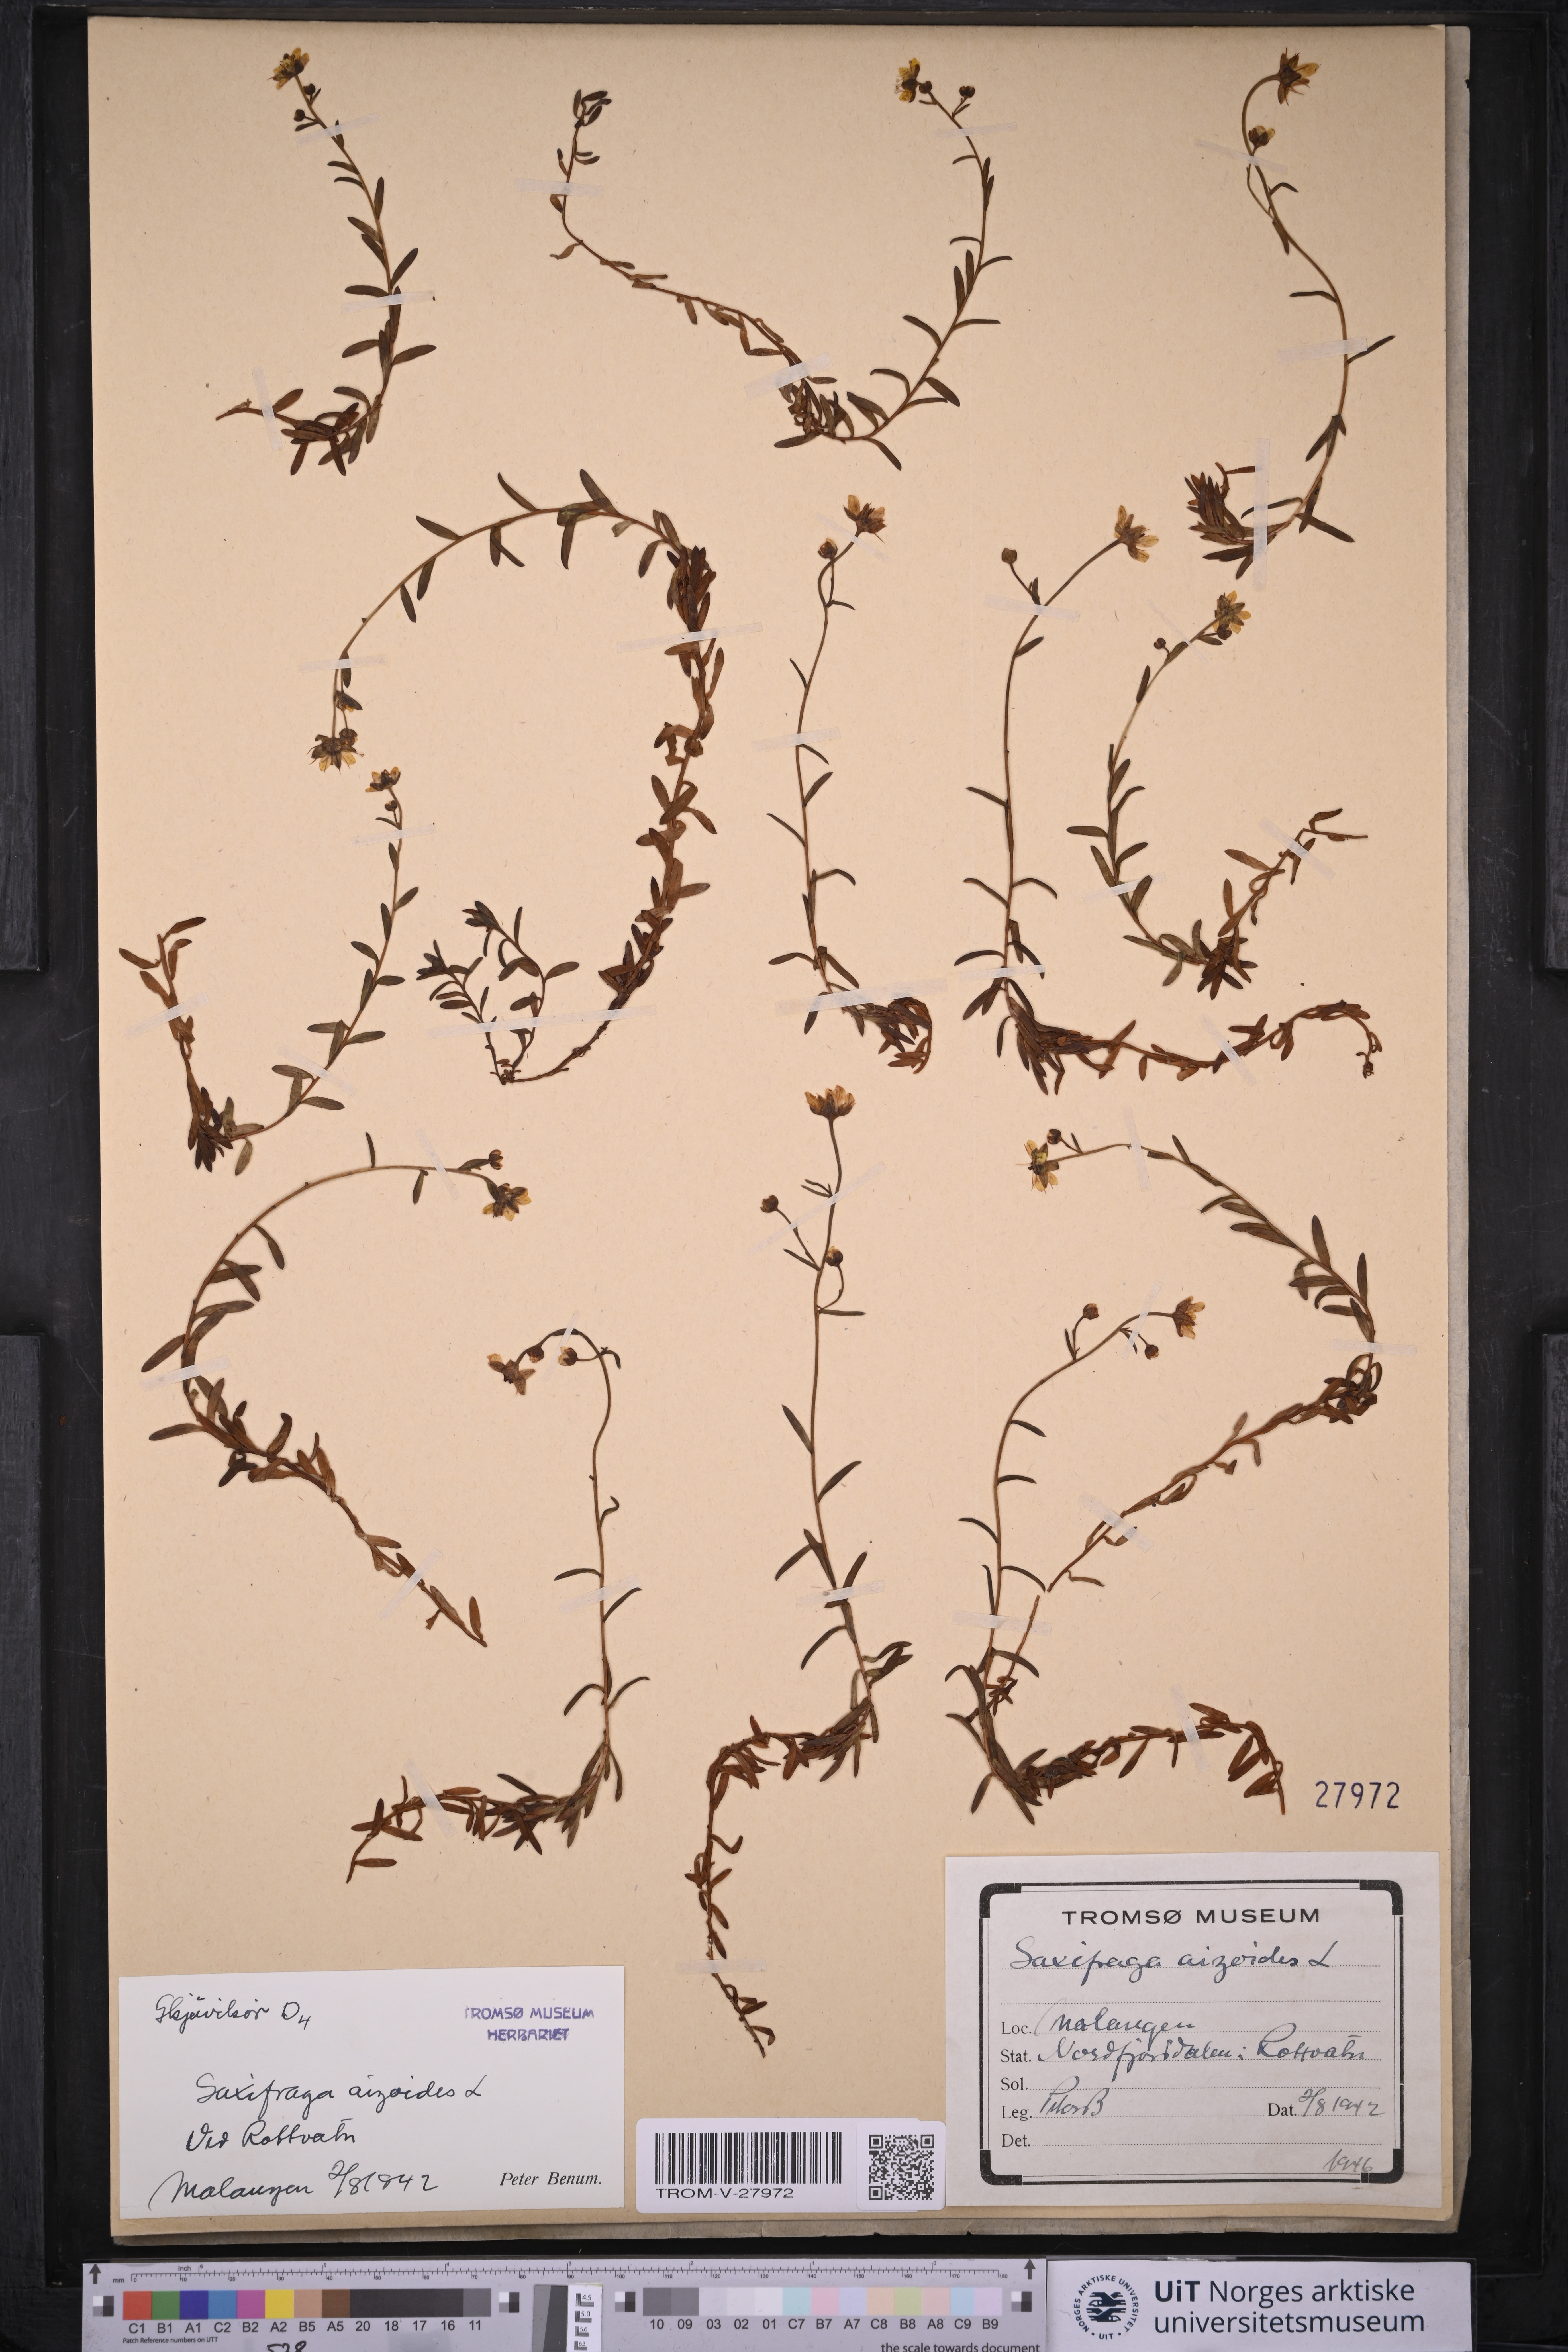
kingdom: Plantae
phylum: Tracheophyta
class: Magnoliopsida
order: Saxifragales
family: Saxifragaceae
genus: Saxifraga
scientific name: Saxifraga aizoides
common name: Yellow mountain saxifrage
